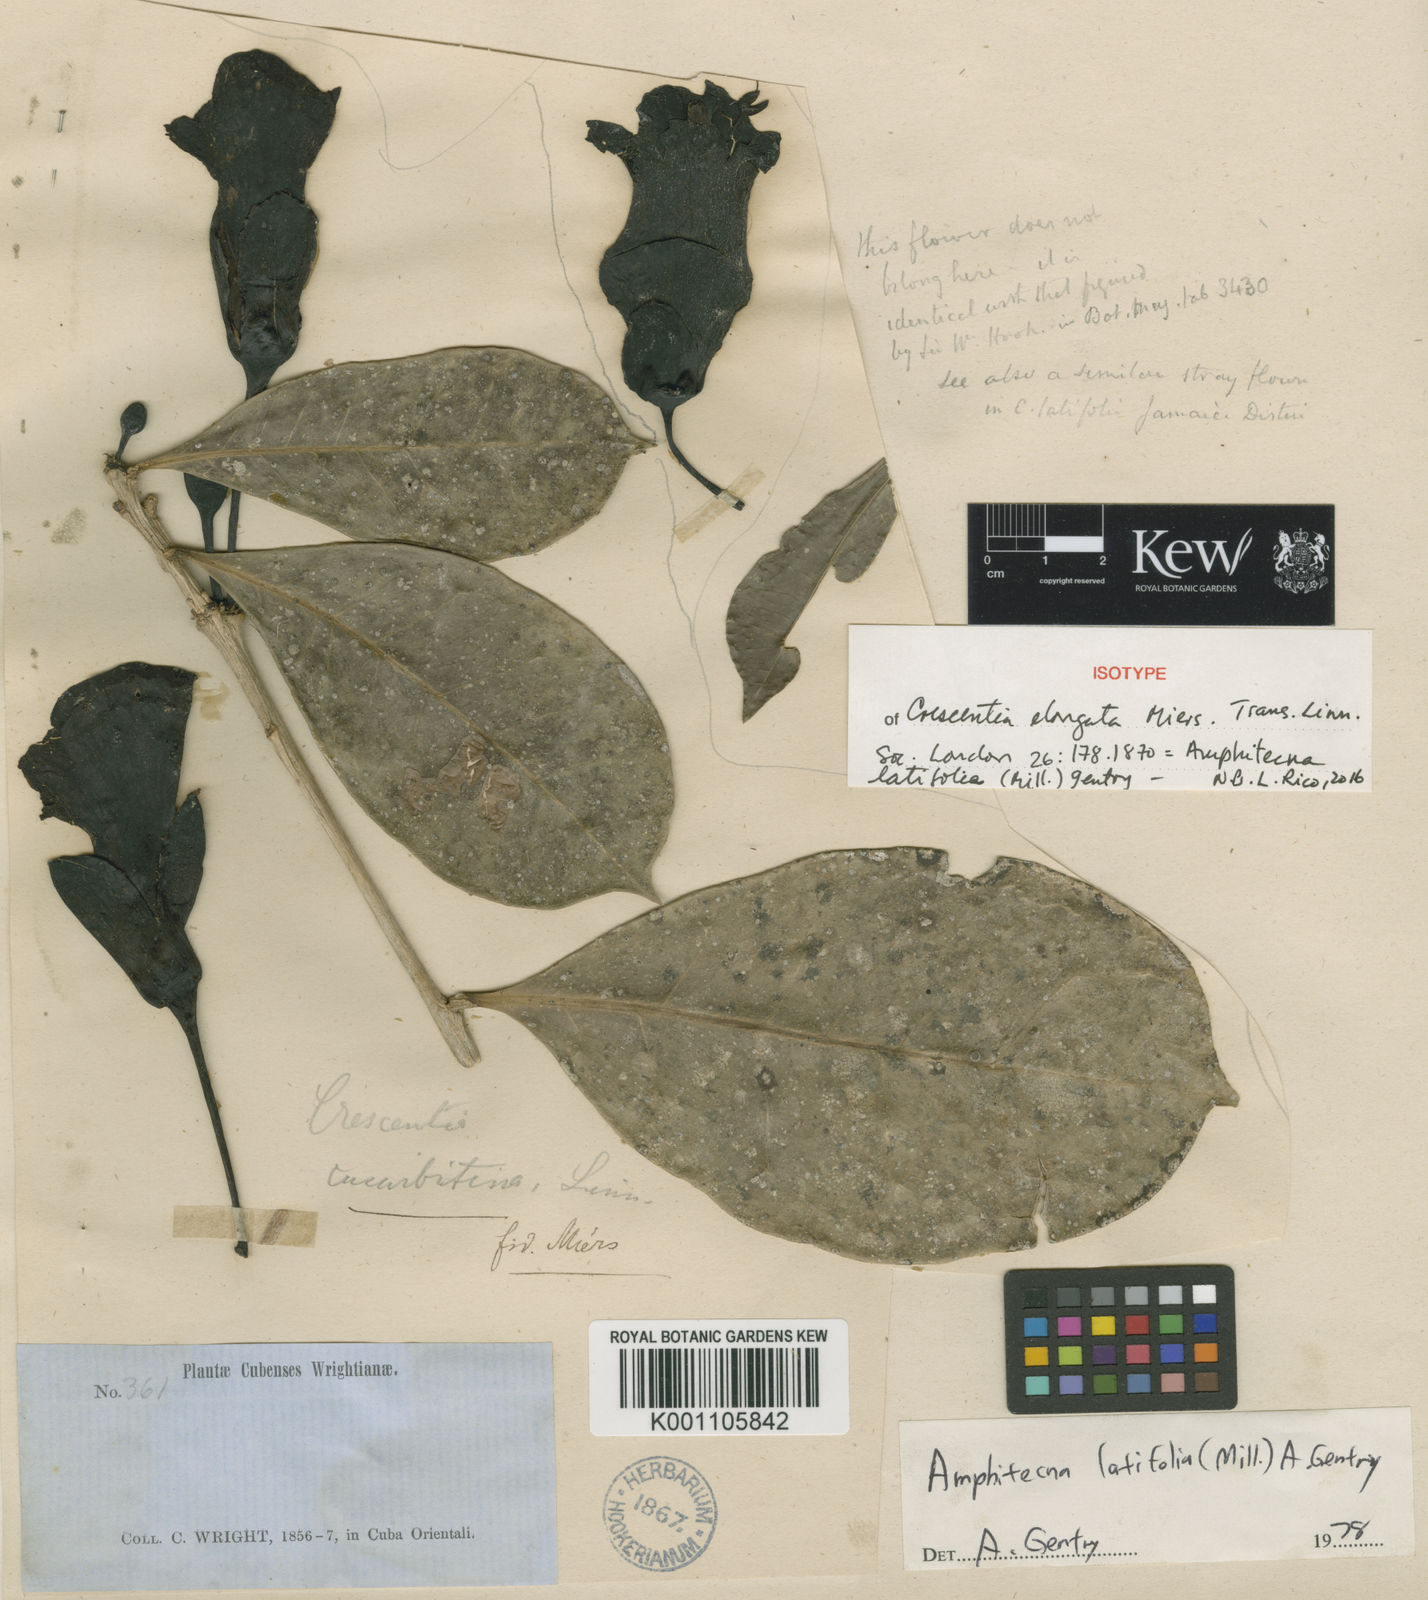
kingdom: Plantae
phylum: Tracheophyta
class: Magnoliopsida
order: Lamiales
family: Bignoniaceae
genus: Amphitecna
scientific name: Amphitecna latifolia
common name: Black-calabash
